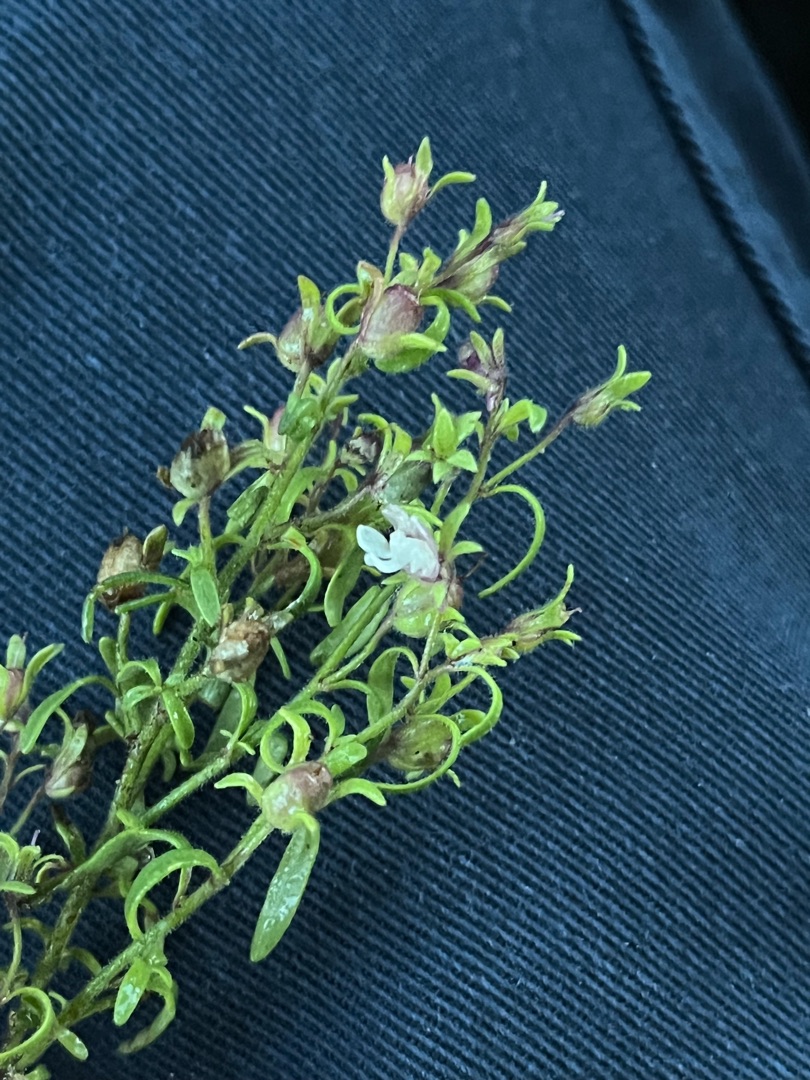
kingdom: Plantae
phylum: Tracheophyta
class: Magnoliopsida
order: Lamiales
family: Plantaginaceae
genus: Chaenorhinum
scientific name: Chaenorhinum minus
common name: Liden torskemund
